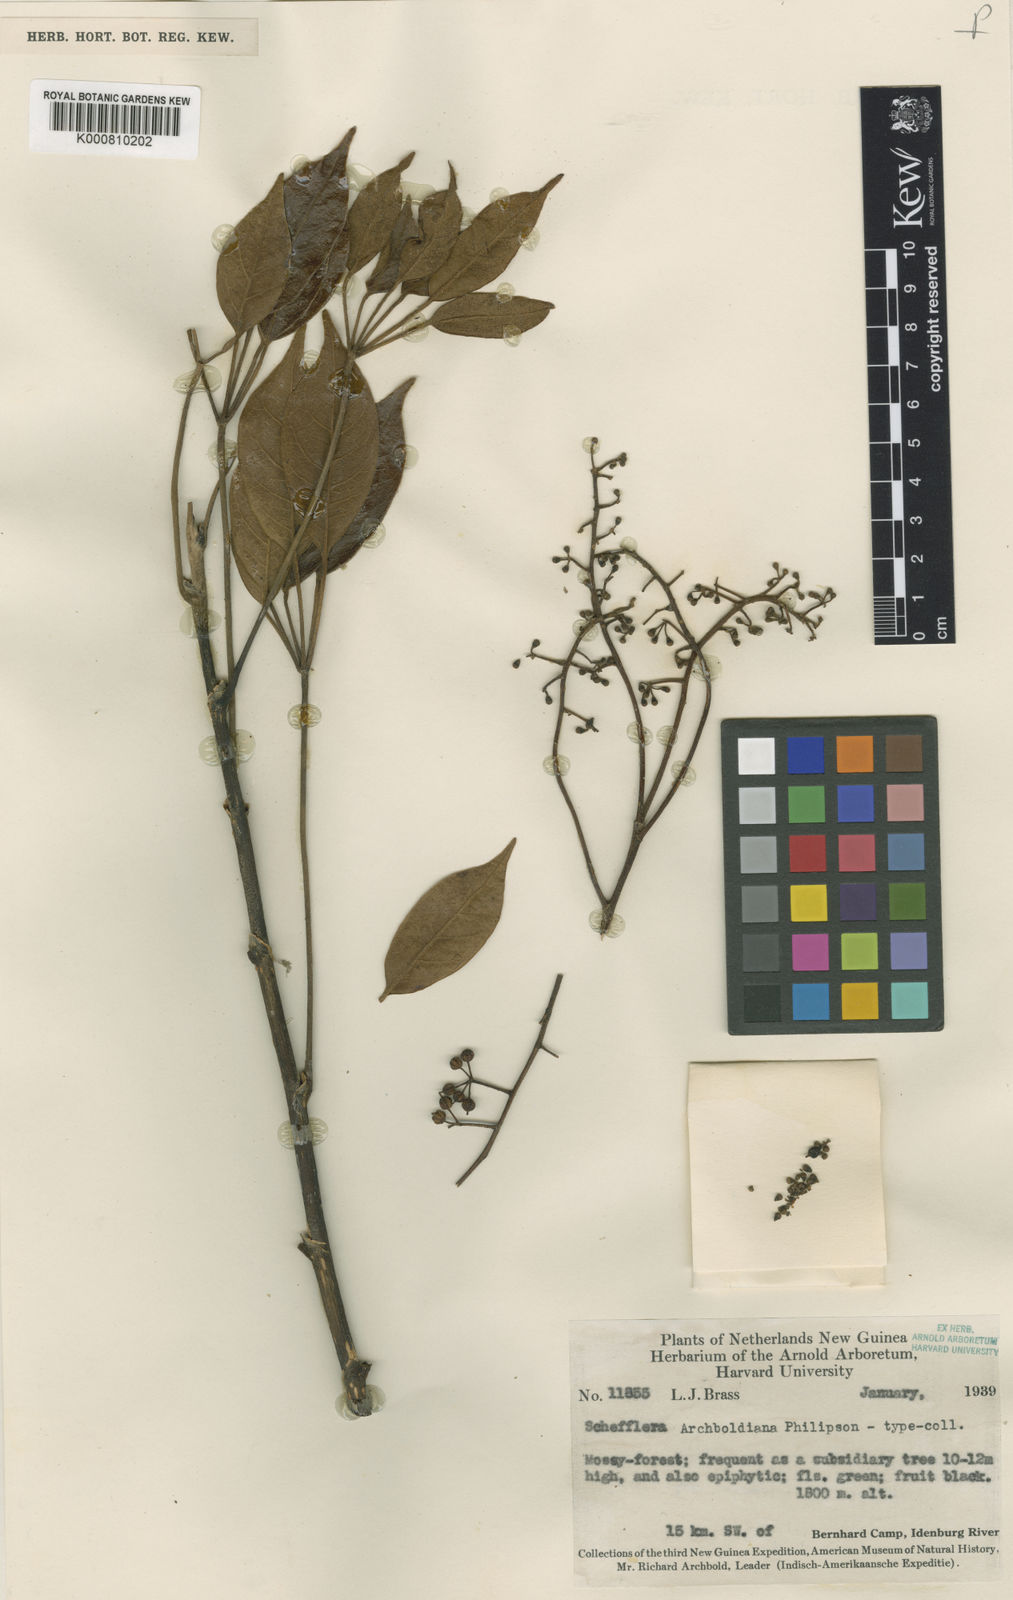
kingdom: Plantae
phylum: Tracheophyta
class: Magnoliopsida
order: Apiales
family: Araliaceae
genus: Heptapleurum
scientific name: Heptapleurum archboldianum
